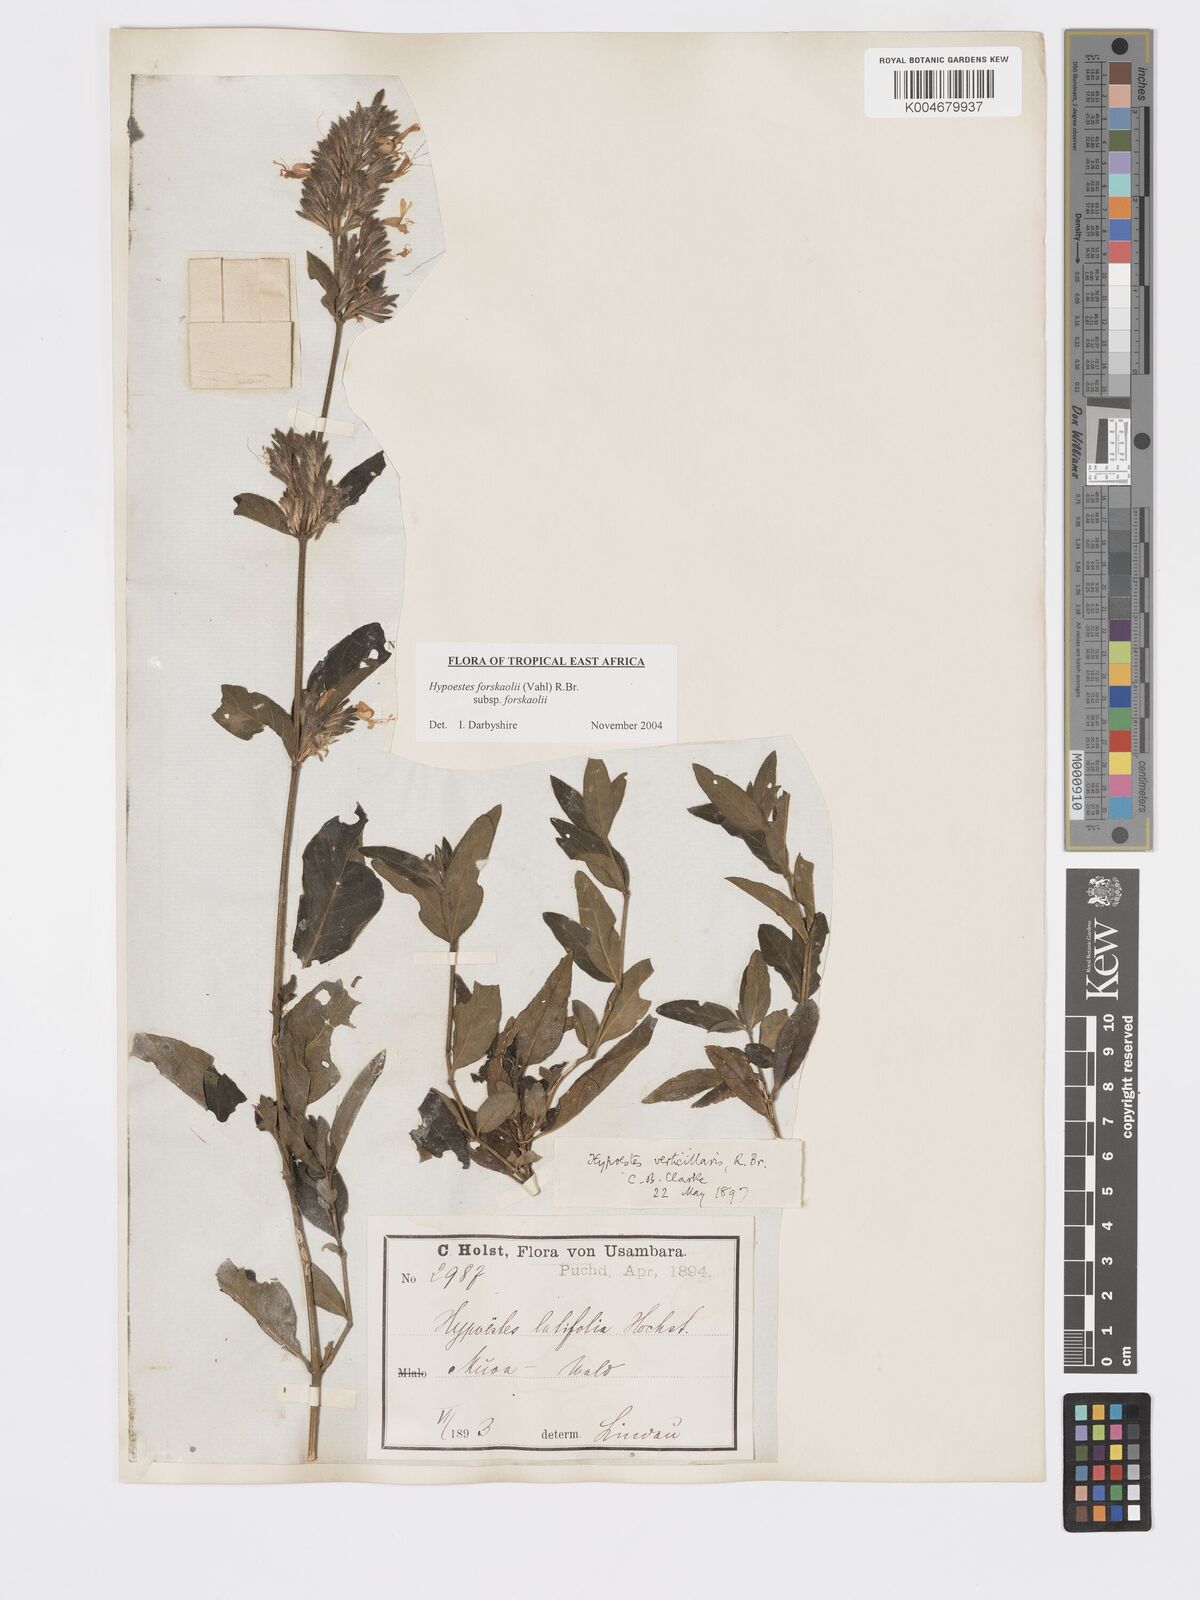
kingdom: Plantae
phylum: Tracheophyta
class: Magnoliopsida
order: Lamiales
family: Acanthaceae
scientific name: Acanthaceae
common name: Acanthaceae
